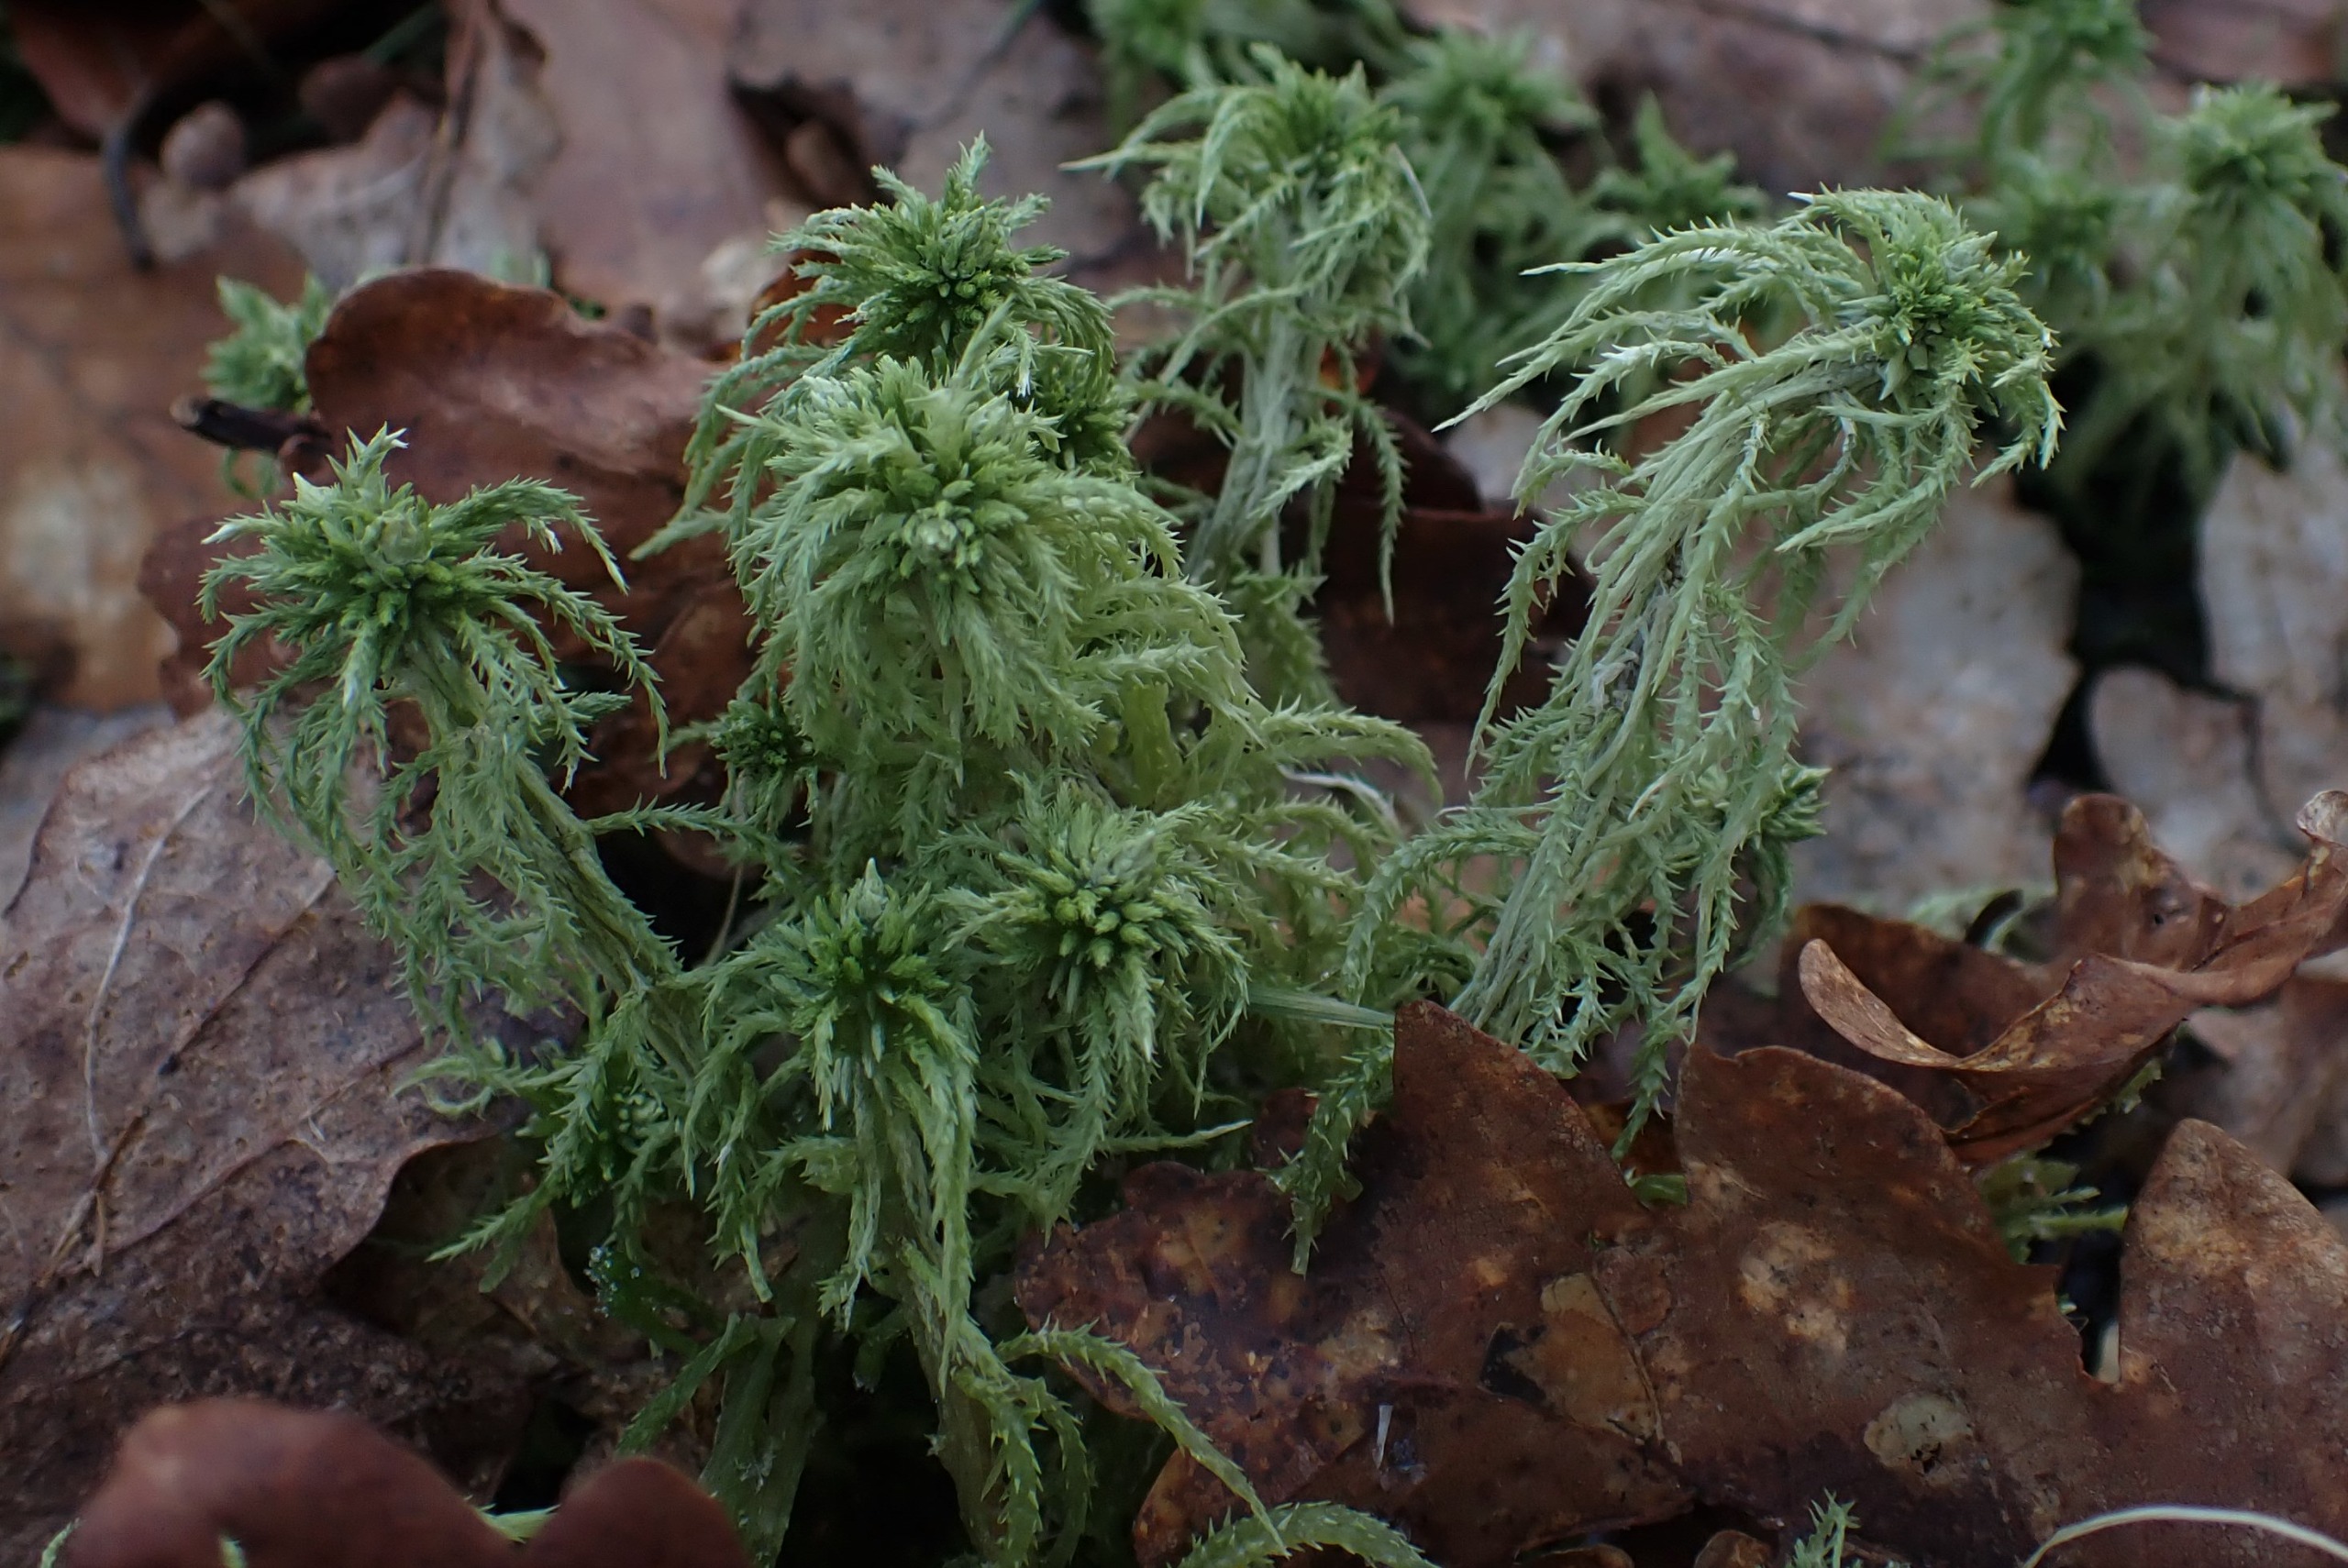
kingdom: Plantae
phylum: Bryophyta
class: Sphagnopsida
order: Sphagnales
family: Sphagnaceae
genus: Sphagnum
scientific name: Sphagnum squarrosum
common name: Udspærret tørvemos
